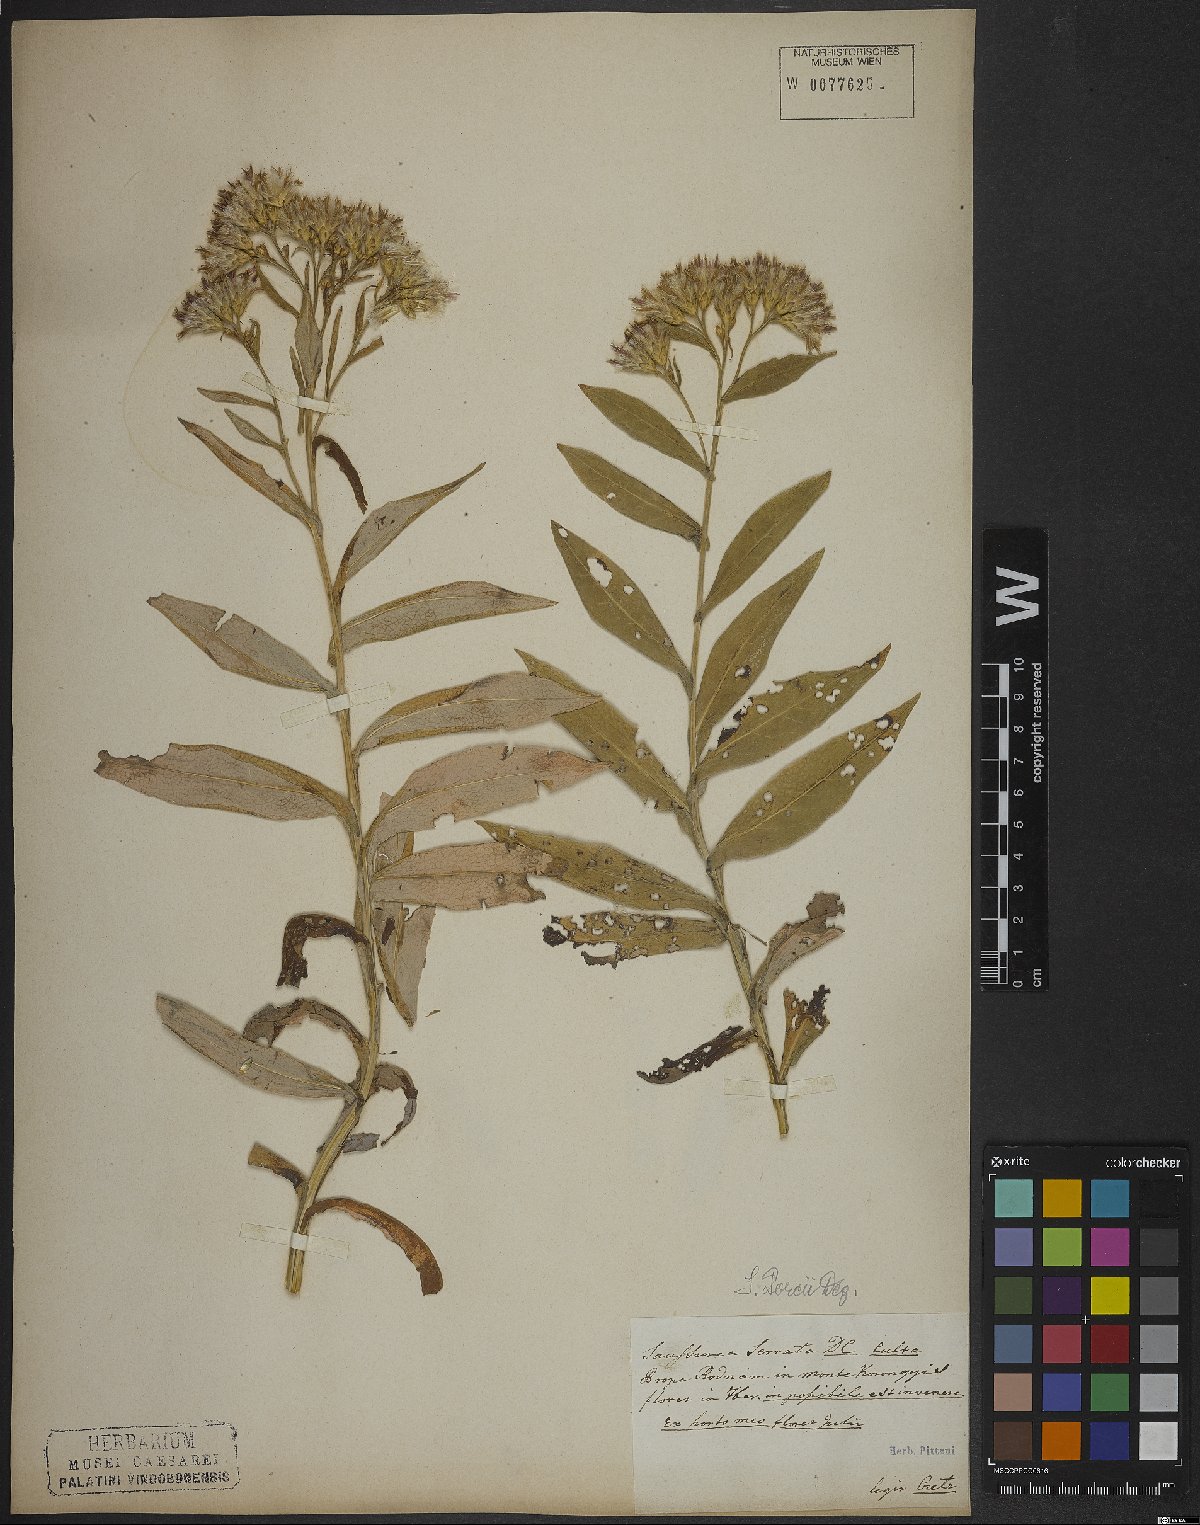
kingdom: Plantae
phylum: Tracheophyta
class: Magnoliopsida
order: Asterales
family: Asteraceae
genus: Saussurea
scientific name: Saussurea porcii
